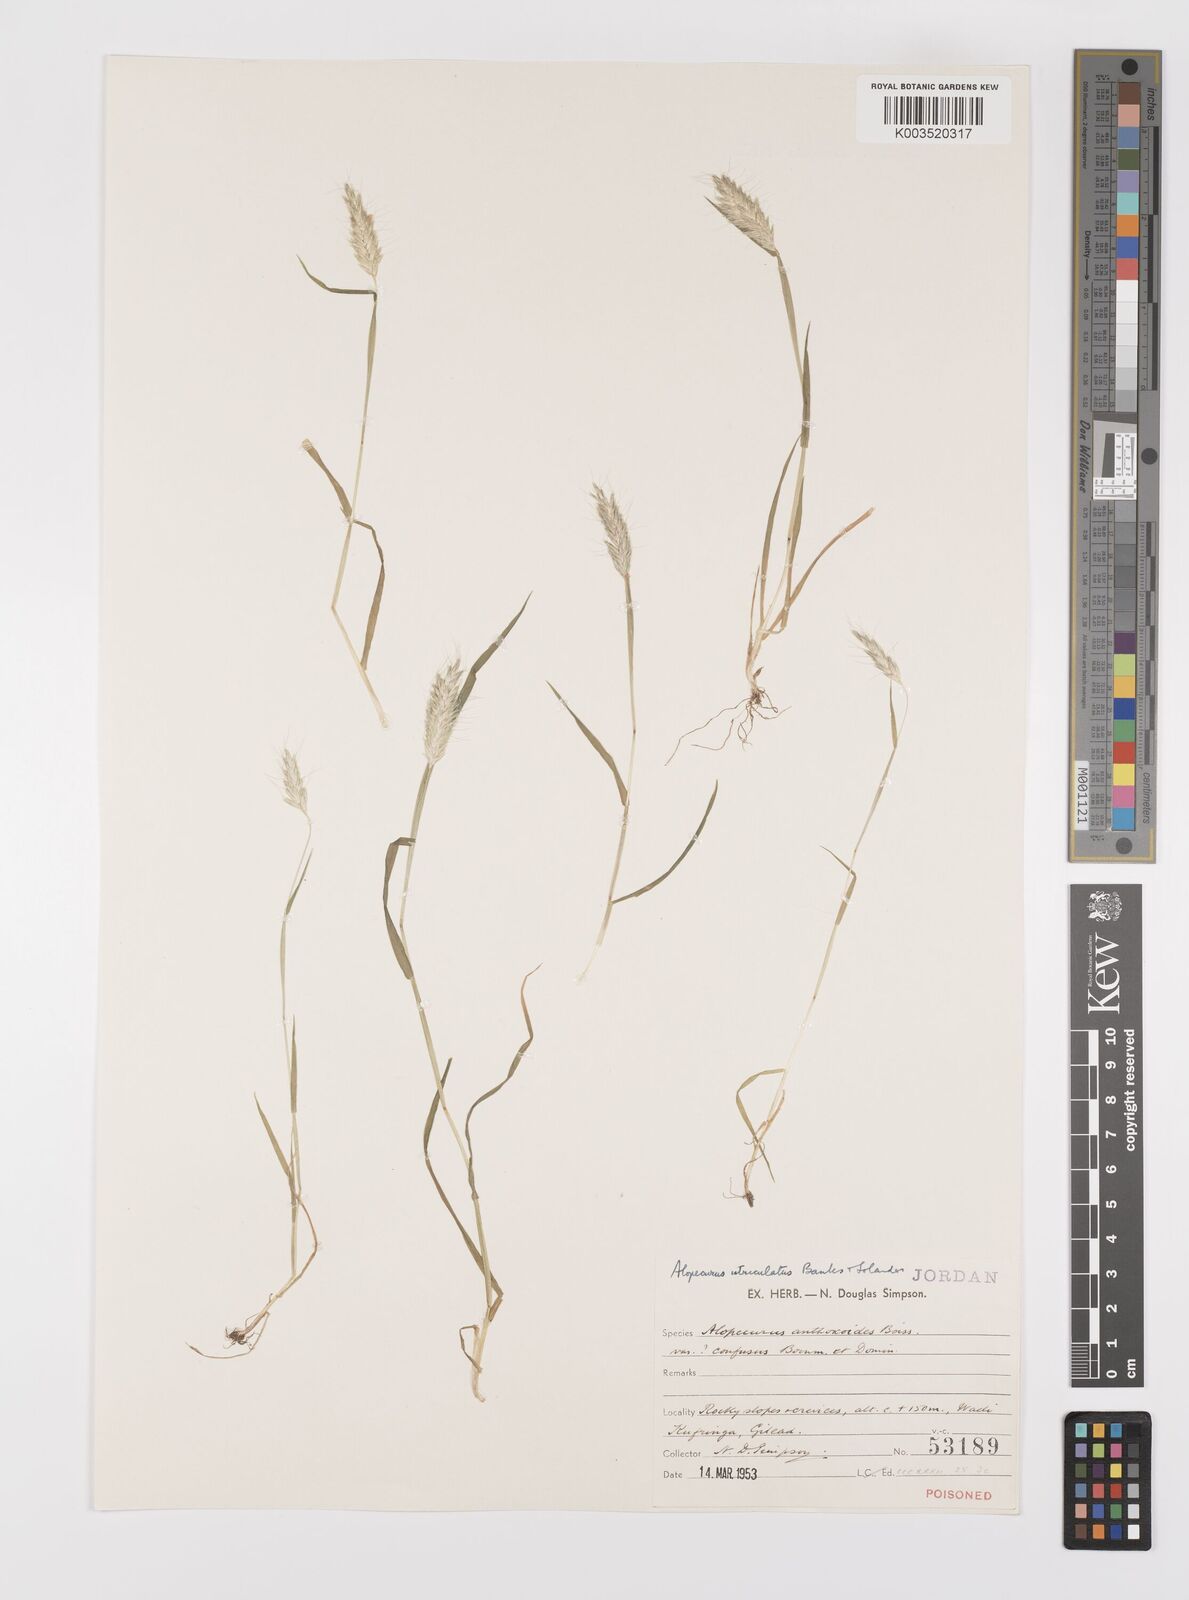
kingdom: Plantae
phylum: Tracheophyta
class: Liliopsida
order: Poales
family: Poaceae
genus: Alopecurus
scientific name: Alopecurus utriculatus
